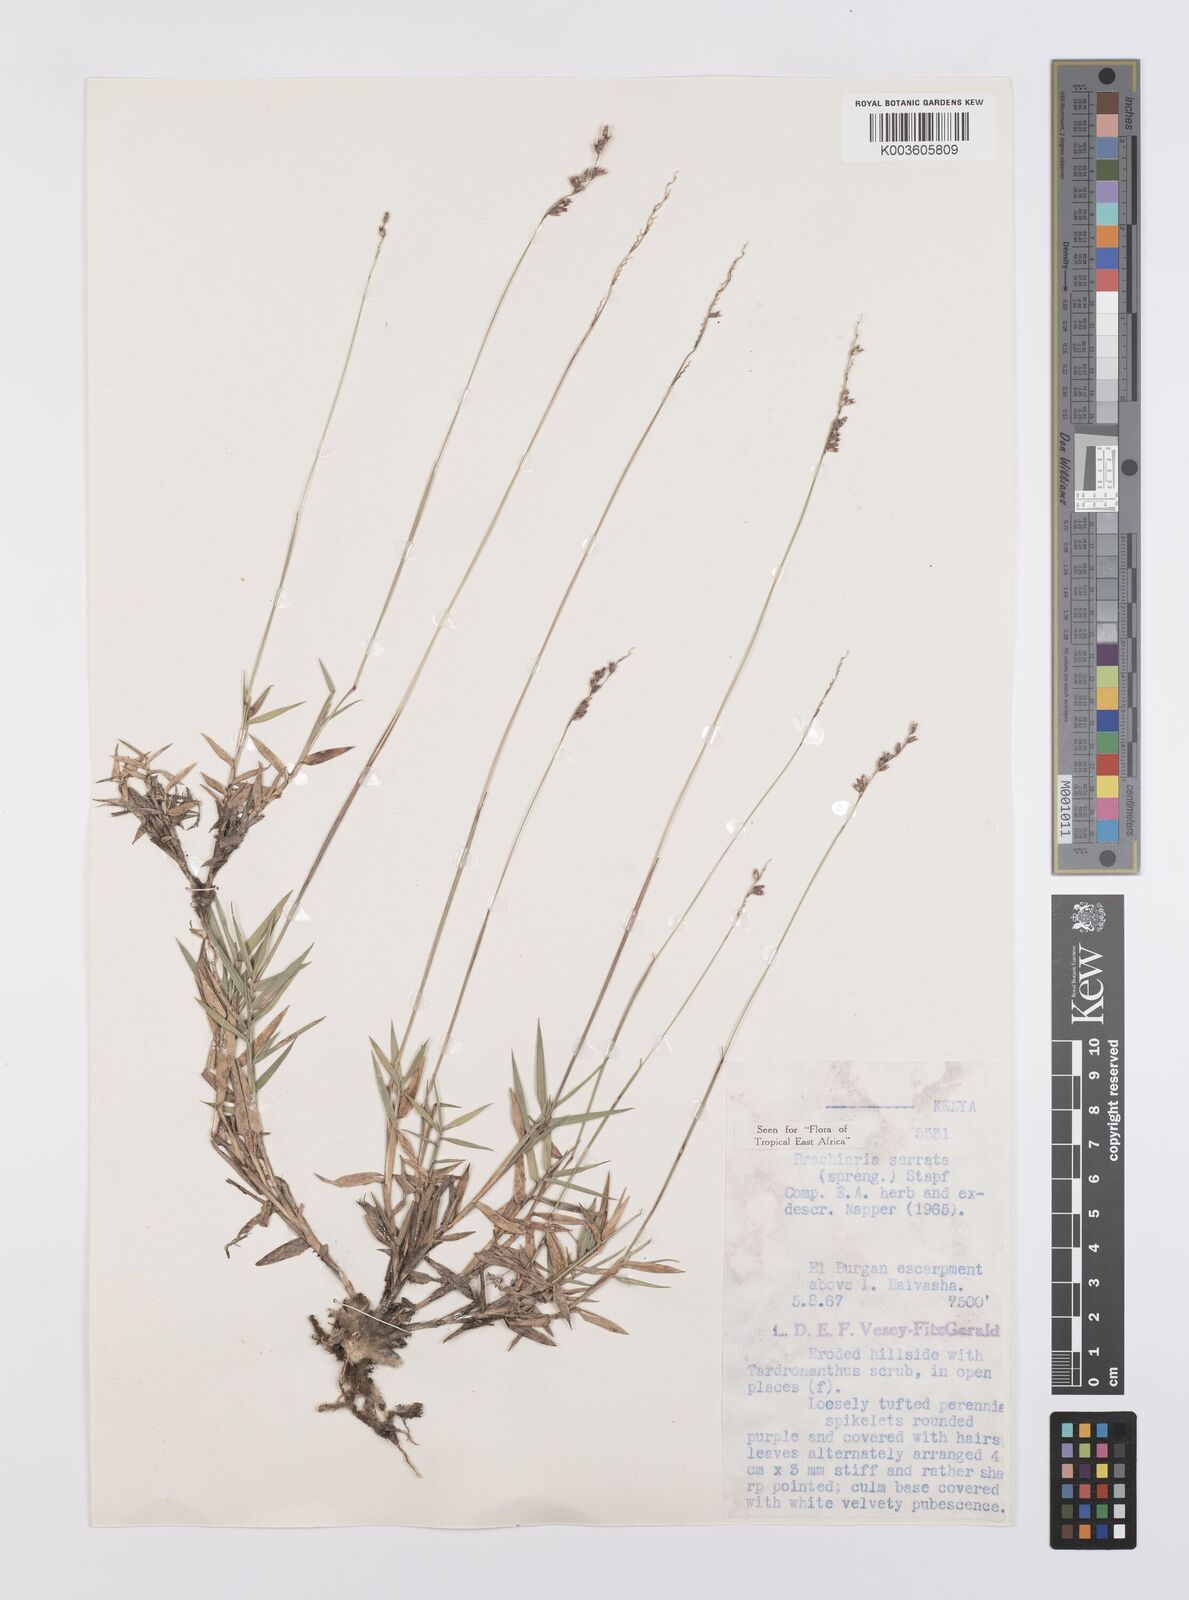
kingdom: Plantae
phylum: Tracheophyta
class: Liliopsida
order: Poales
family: Poaceae
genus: Urochloa
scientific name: Urochloa serrata
